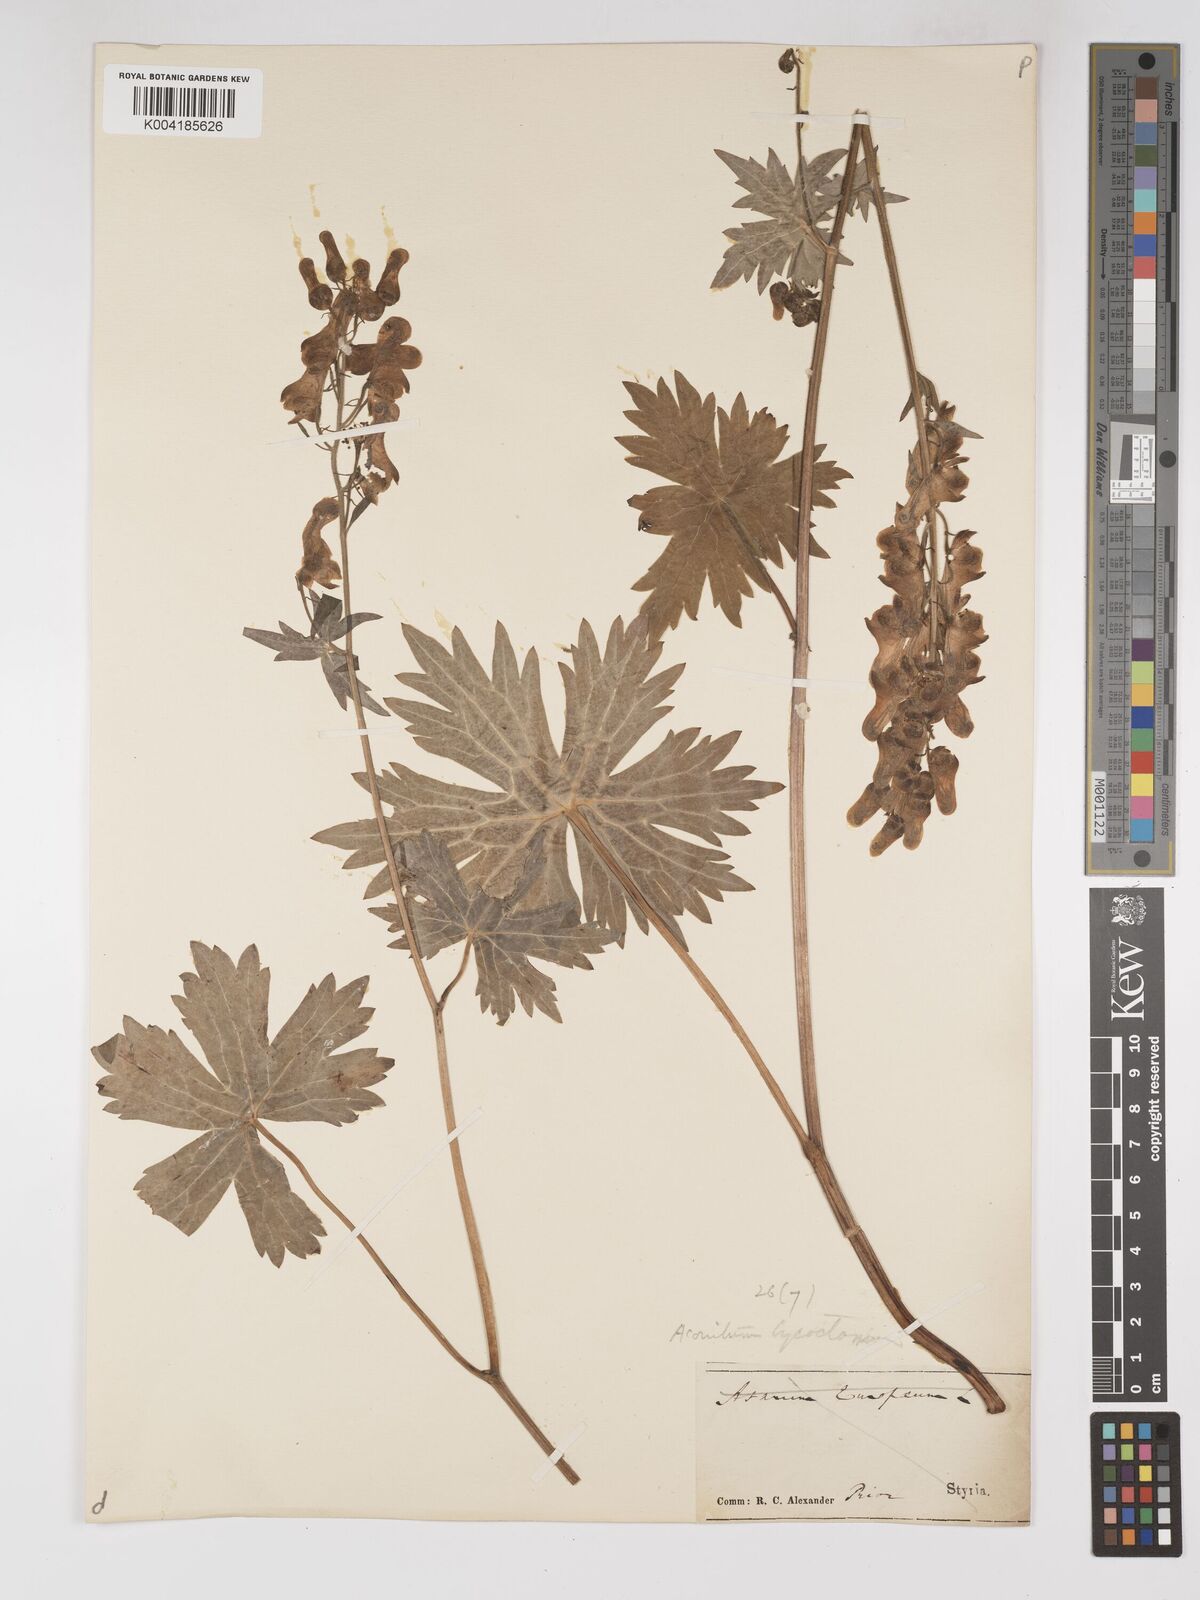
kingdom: Plantae
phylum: Tracheophyta
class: Magnoliopsida
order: Ranunculales
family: Ranunculaceae
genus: Aconitum
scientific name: Aconitum lycoctonum
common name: Wolf's-bane
